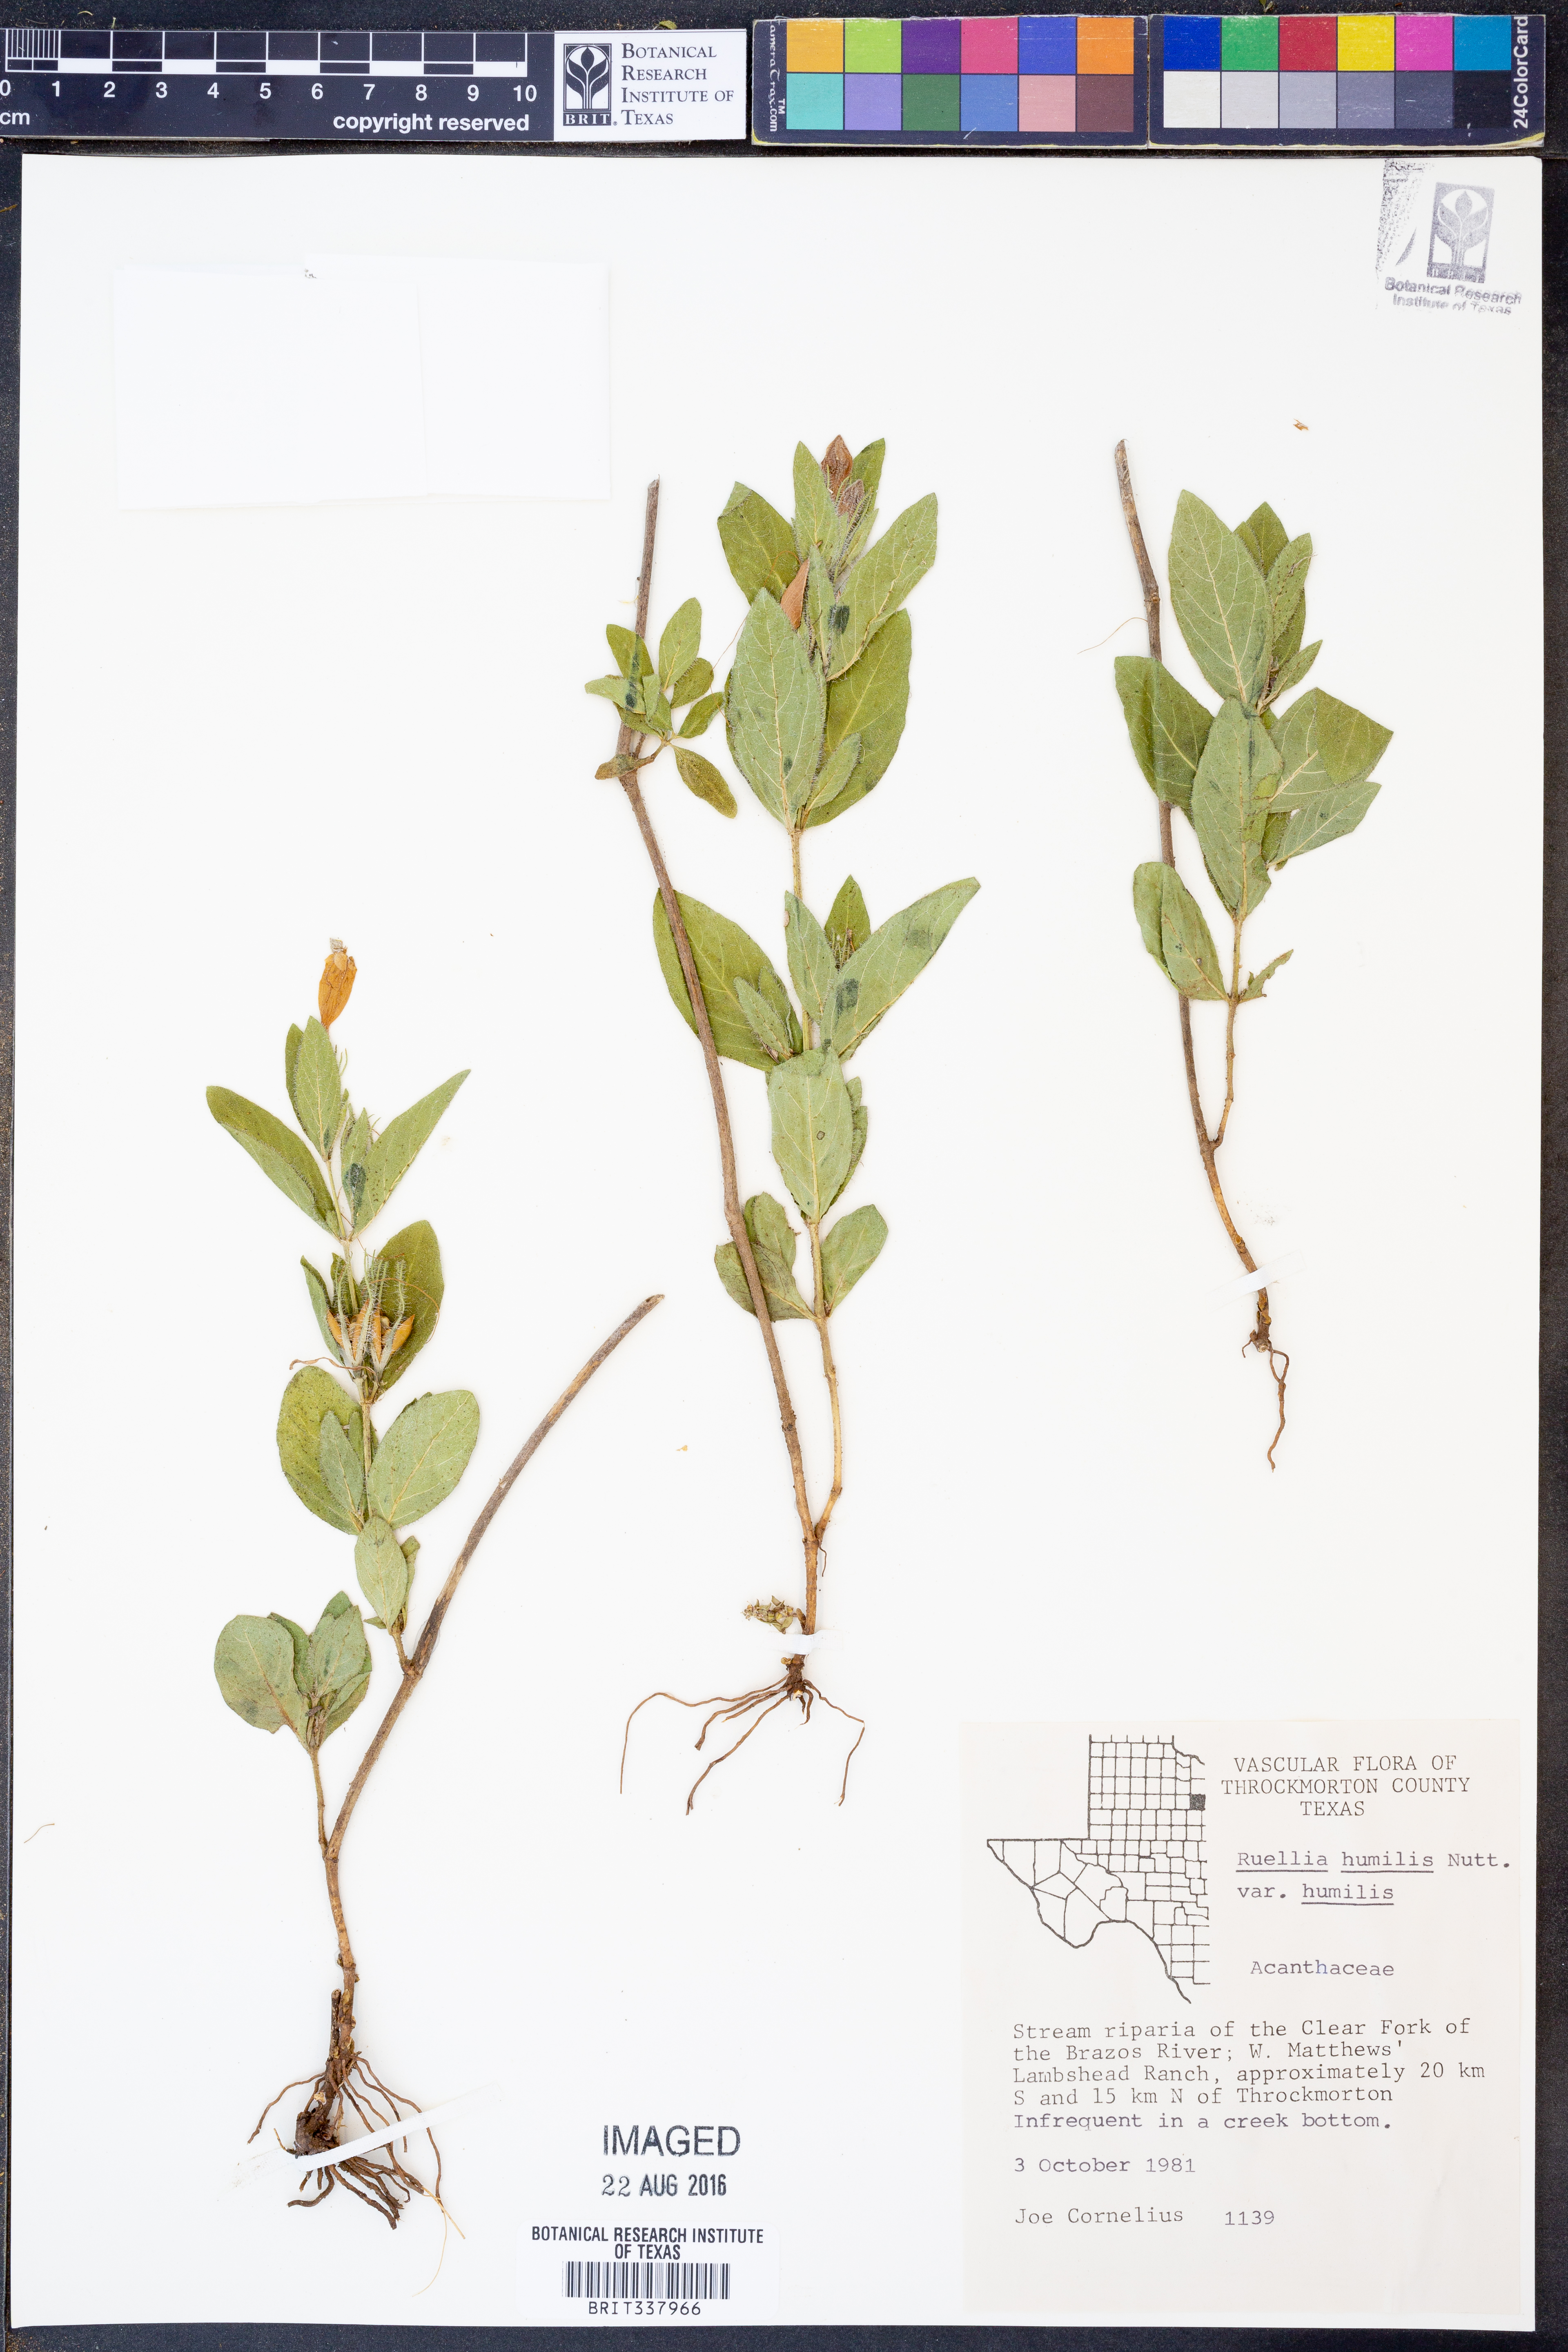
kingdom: Plantae
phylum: Tracheophyta
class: Magnoliopsida
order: Lamiales
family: Acanthaceae
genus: Ruellia
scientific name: Ruellia humilis
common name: Fringe-leaf ruellia
